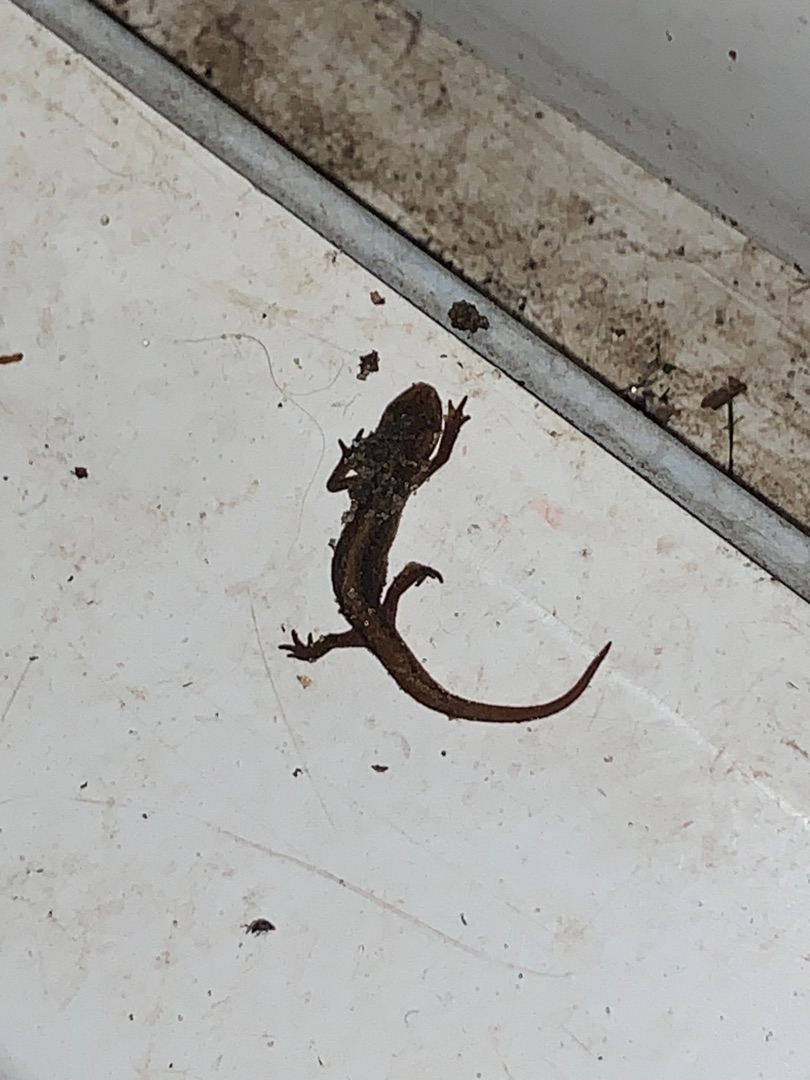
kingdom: Animalia
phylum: Chordata
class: Amphibia
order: Caudata
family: Salamandridae
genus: Lissotriton
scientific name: Lissotriton vulgaris
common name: Lille vandsalamander
